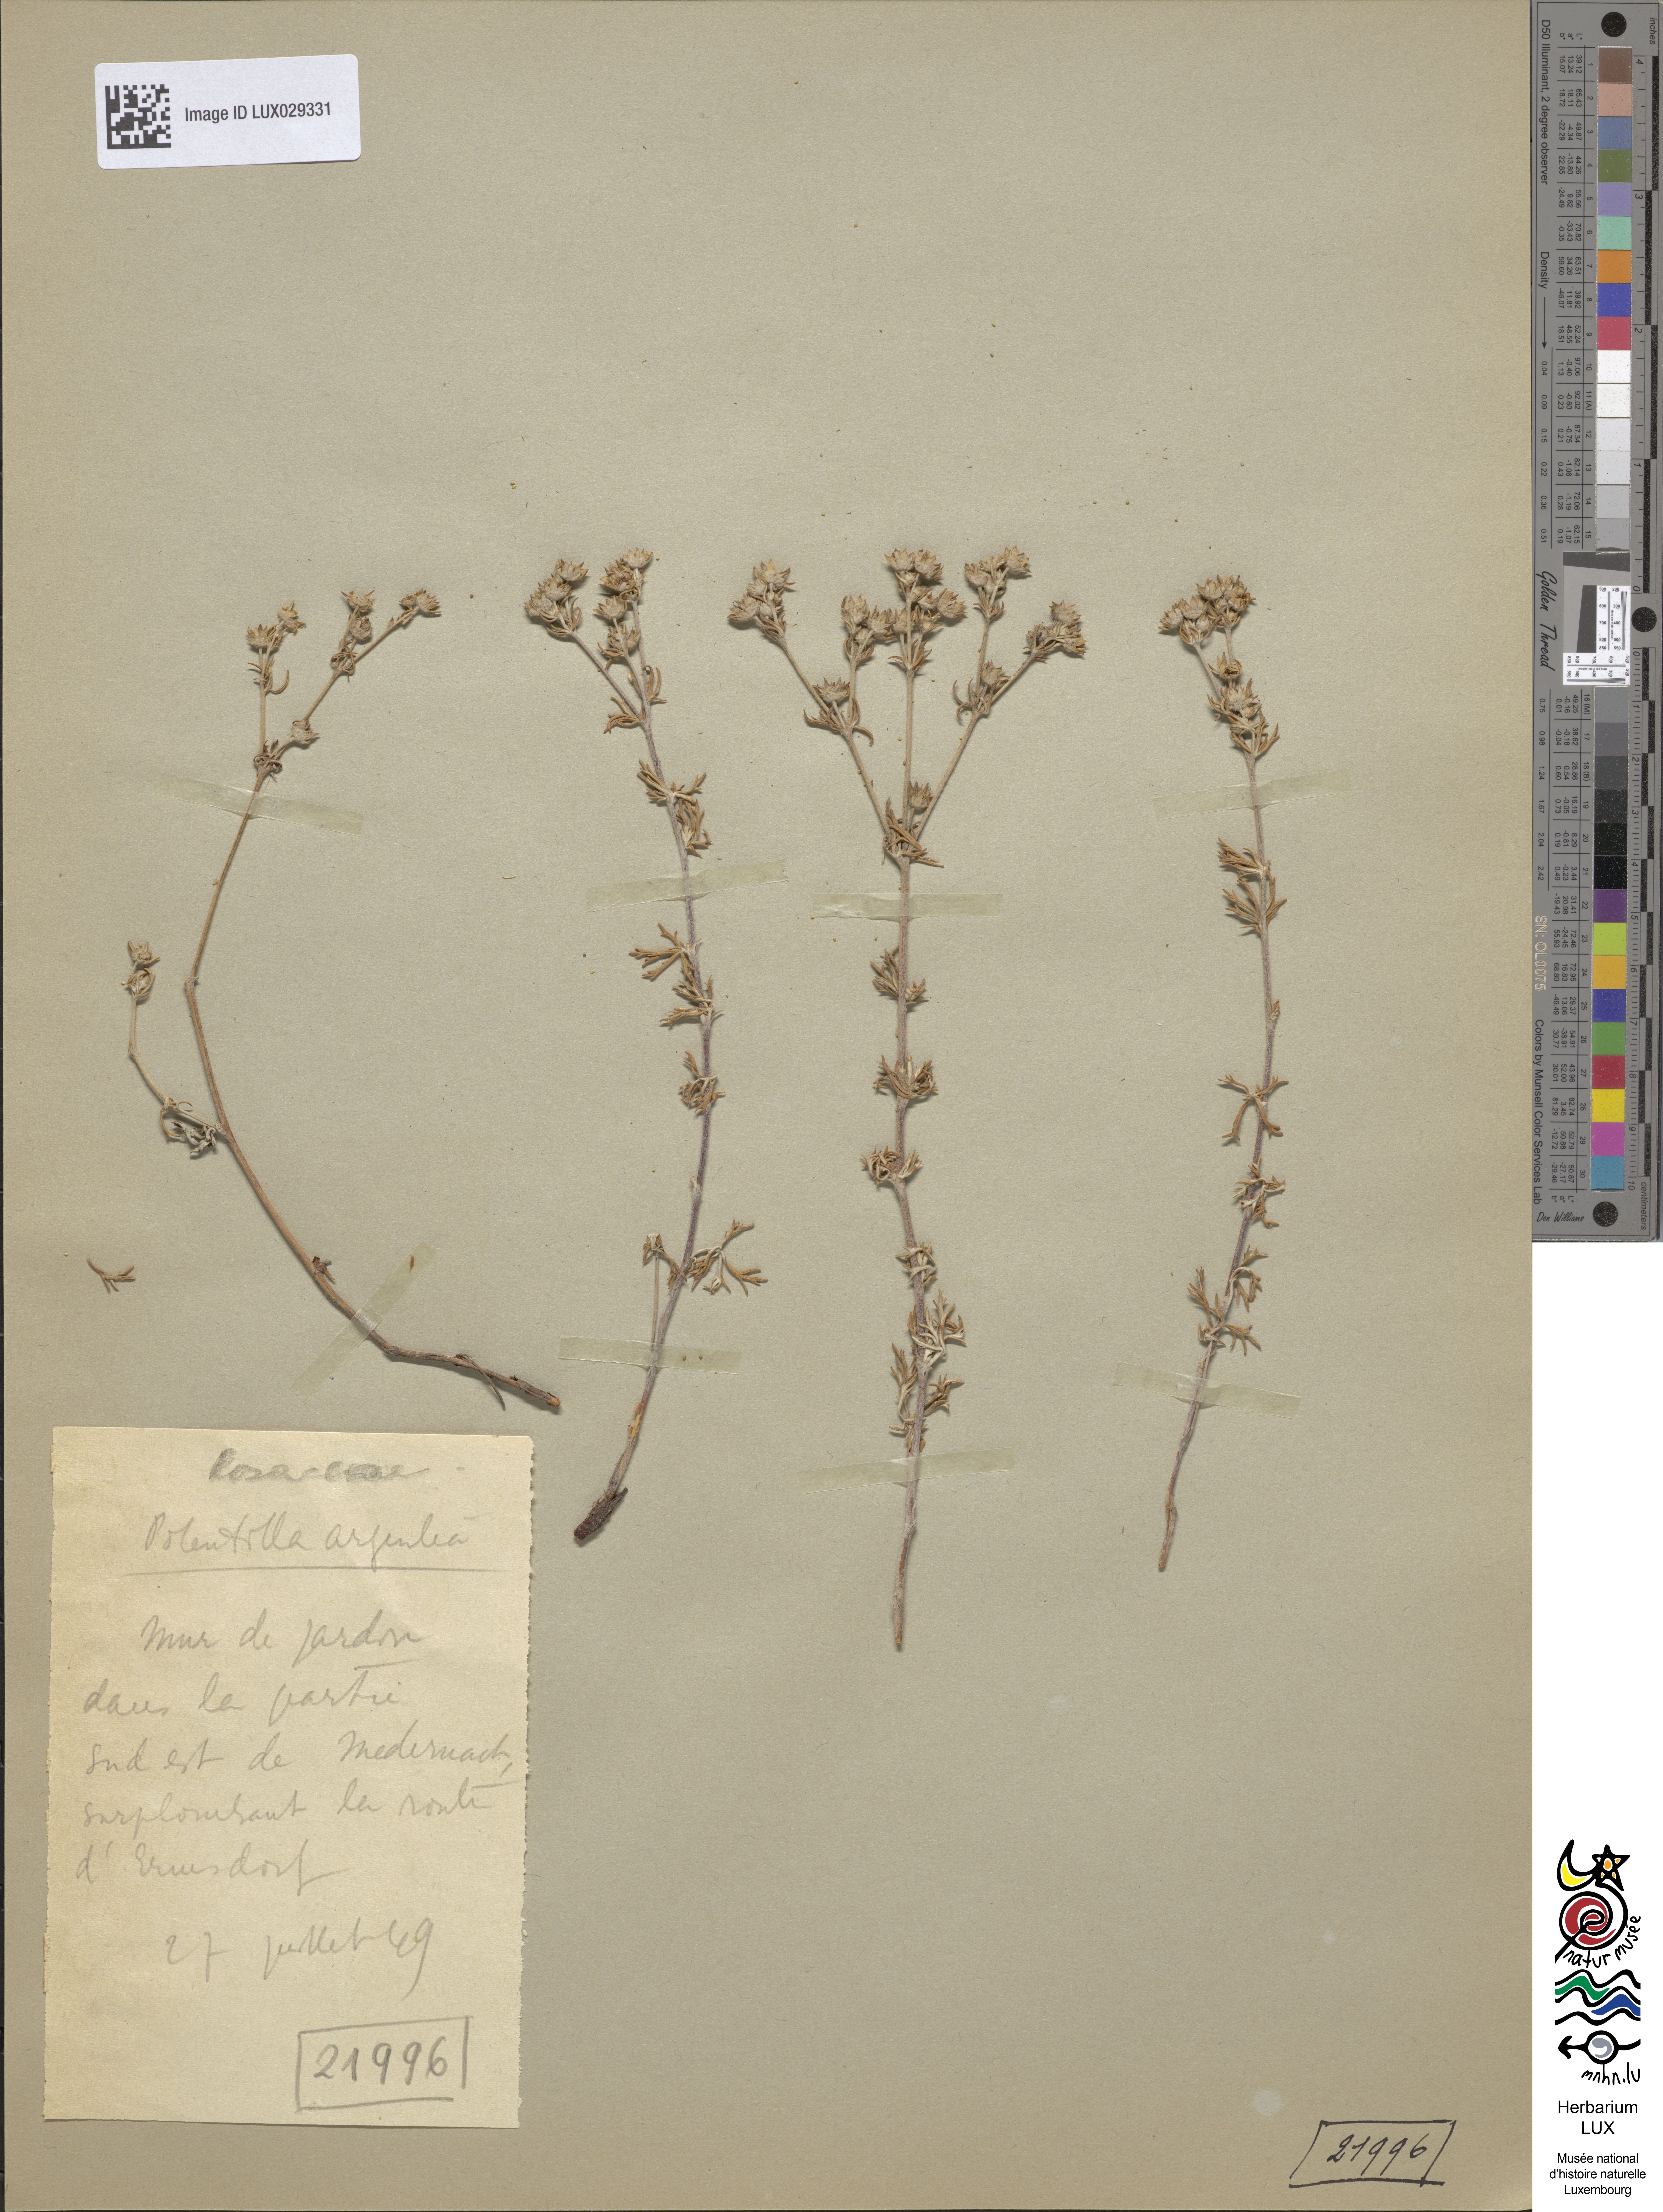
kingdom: Plantae
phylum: Tracheophyta
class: Magnoliopsida
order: Rosales
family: Rosaceae
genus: Potentilla
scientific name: Potentilla argentea
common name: Hoary cinquefoil
